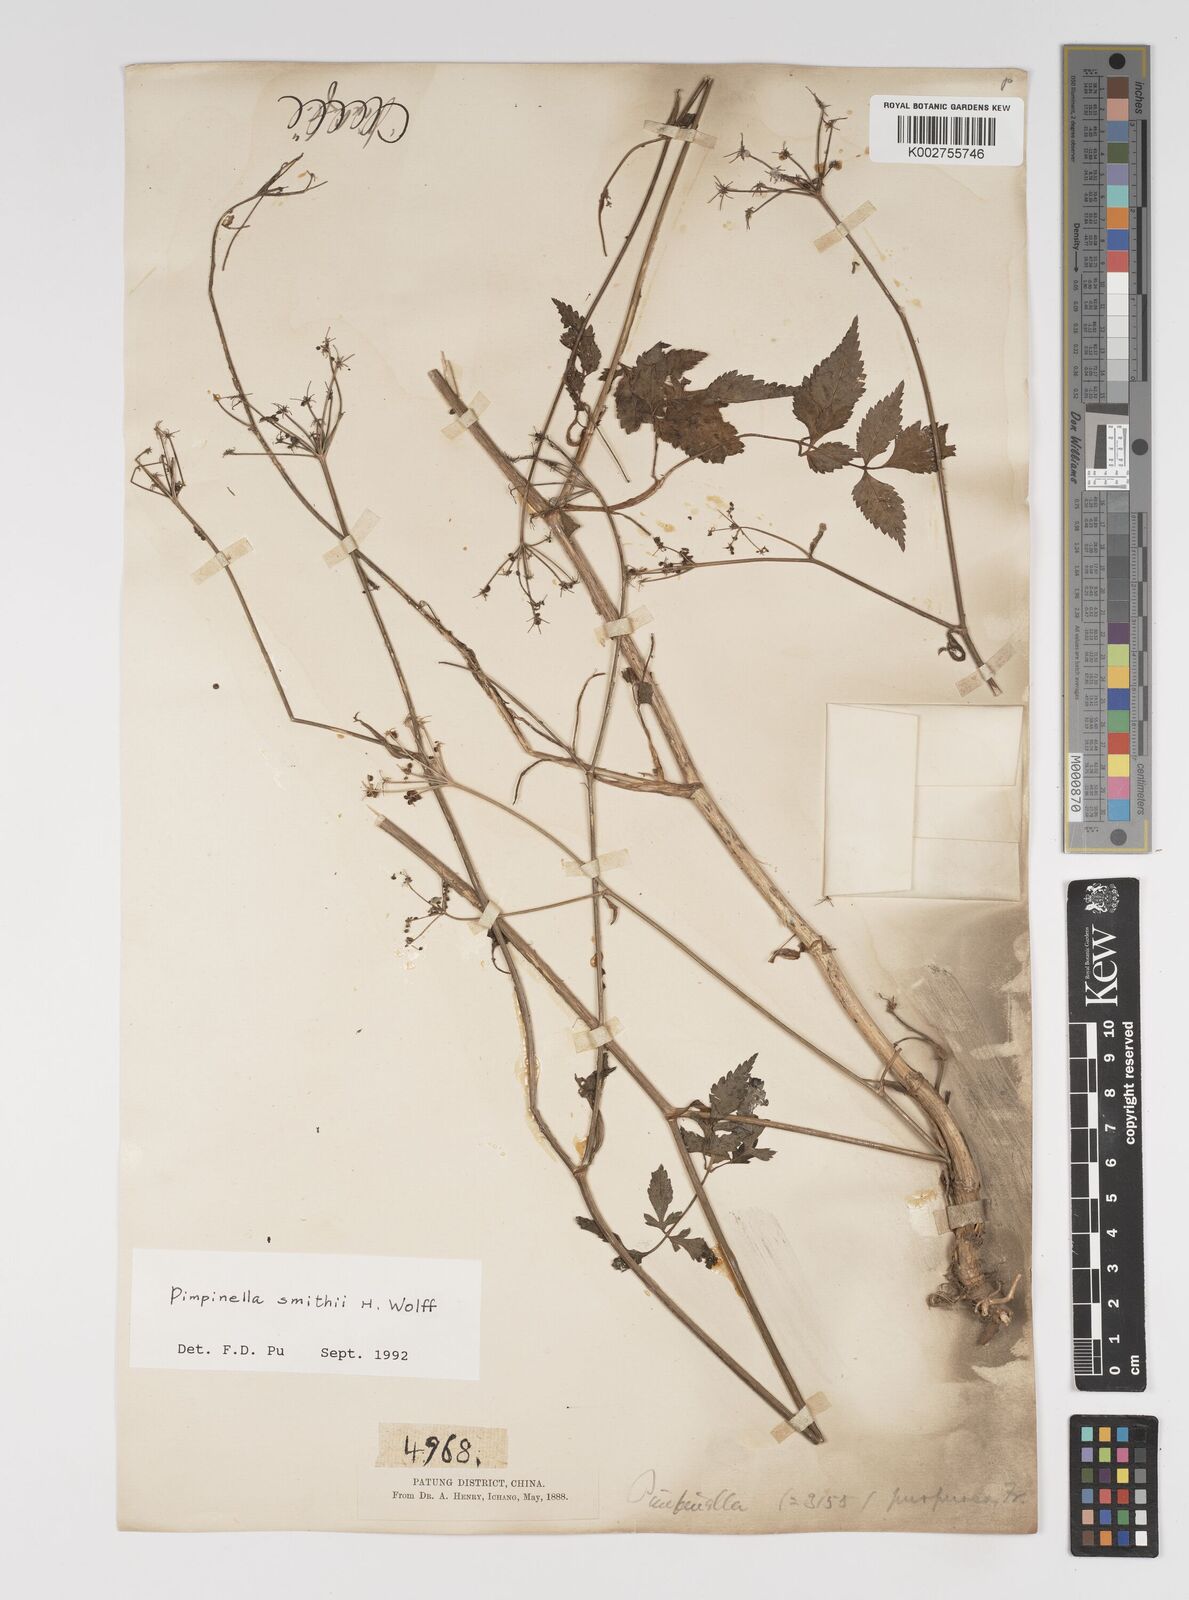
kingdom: Plantae
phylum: Tracheophyta
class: Magnoliopsida
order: Apiales
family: Apiaceae
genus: Pimpinella
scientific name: Pimpinella heliosciadea
